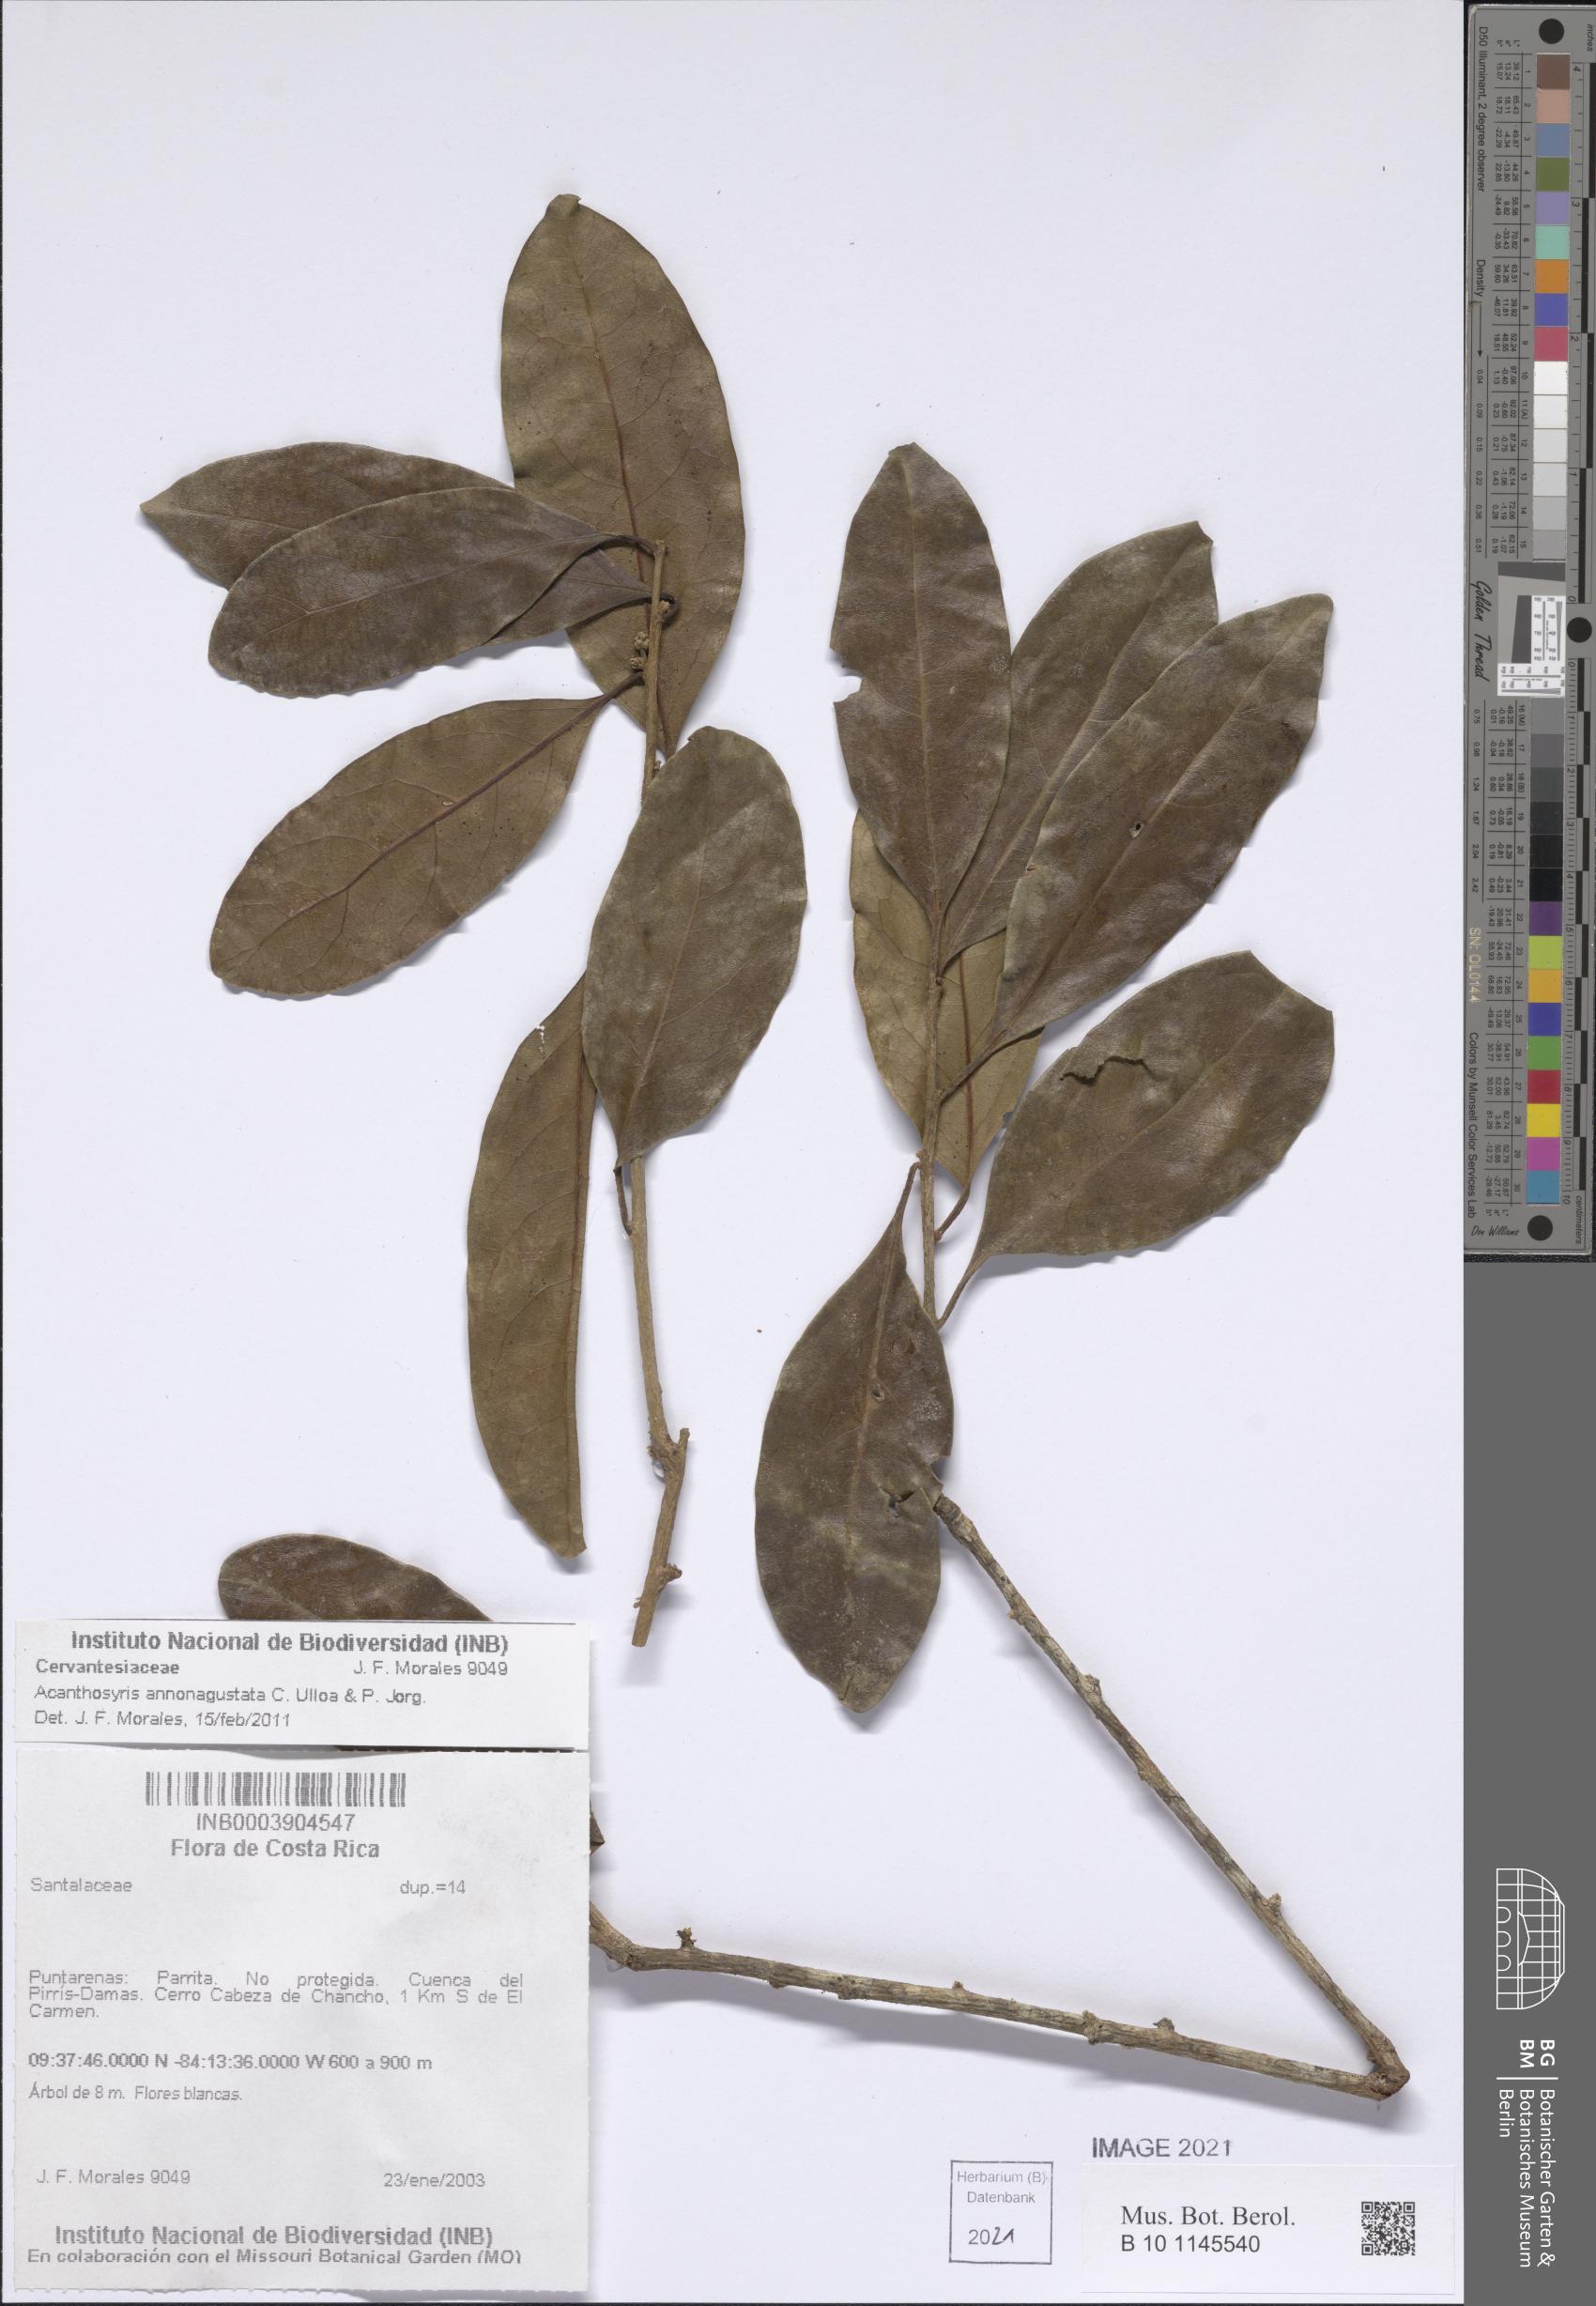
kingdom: Plantae
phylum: Tracheophyta
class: Magnoliopsida
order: Santalales
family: Cervantesiaceae
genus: Acanthosyris
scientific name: Acanthosyris annonagustata
